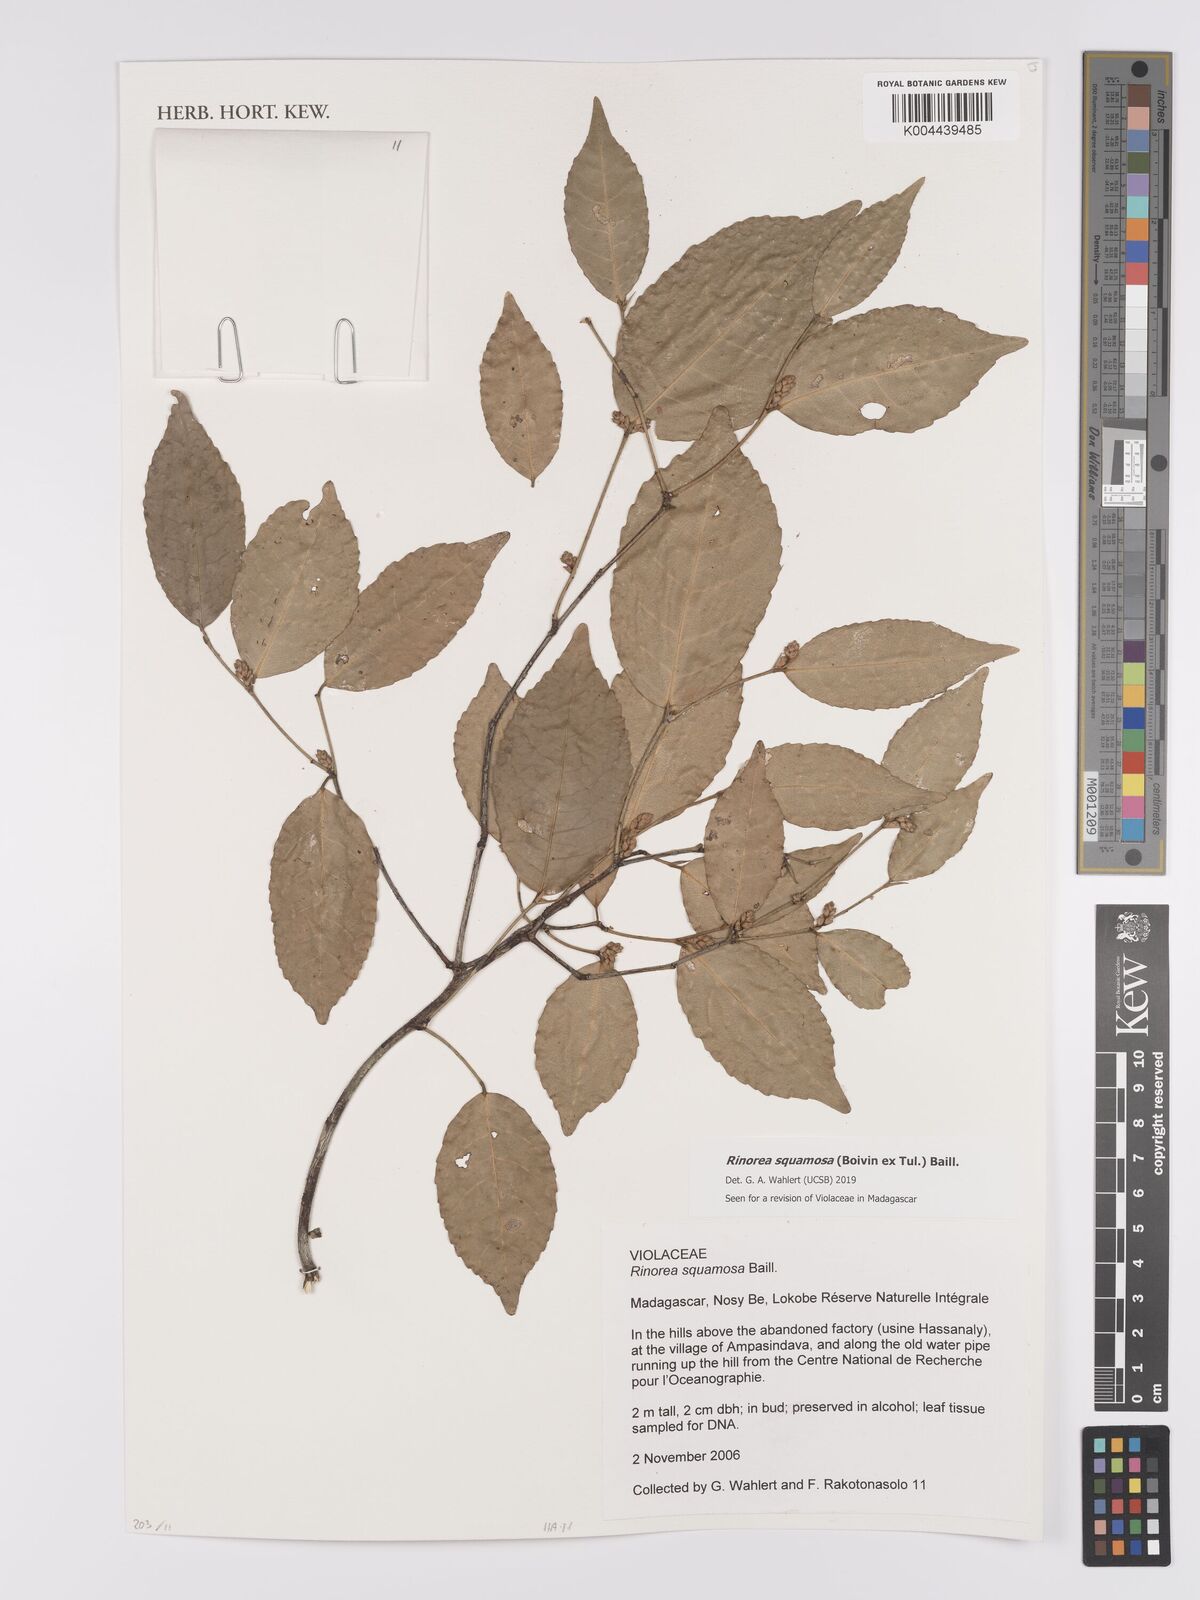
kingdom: Plantae
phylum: Tracheophyta
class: Magnoliopsida
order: Malpighiales
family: Violaceae
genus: Rinorea
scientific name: Rinorea squamosa
